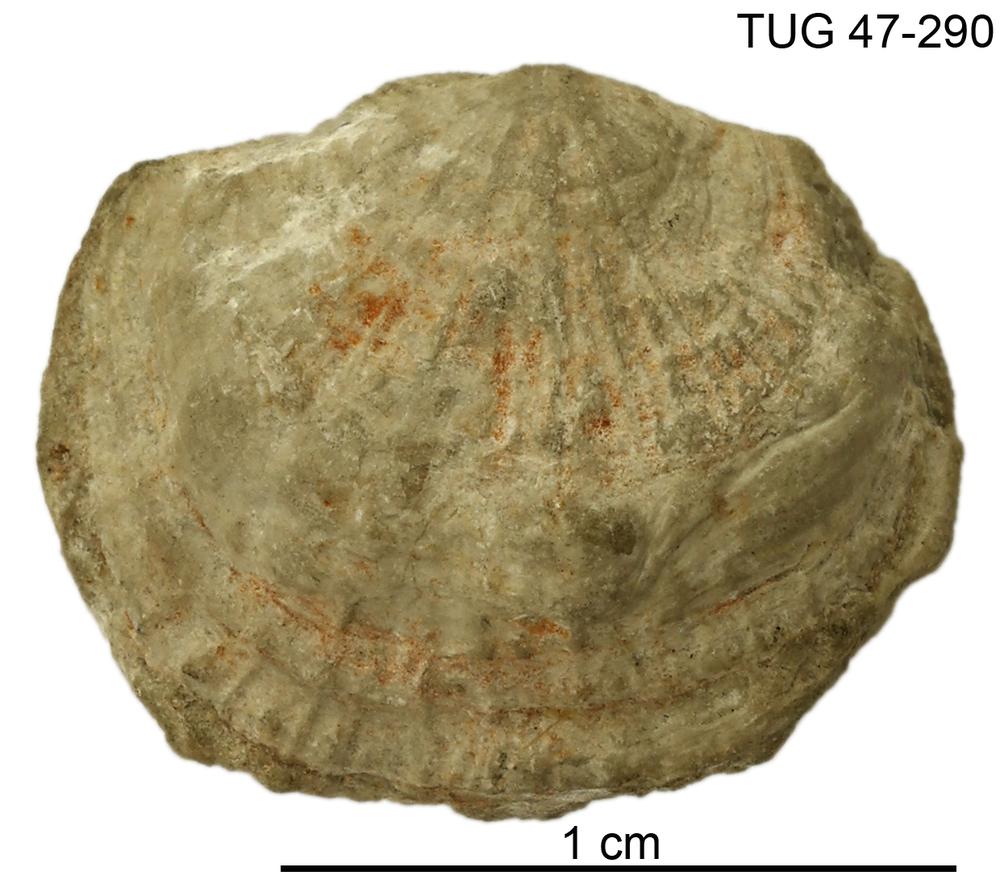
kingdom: Animalia
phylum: Brachiopoda
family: Strophomenidae
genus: Holtedahlina
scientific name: Holtedahlina
